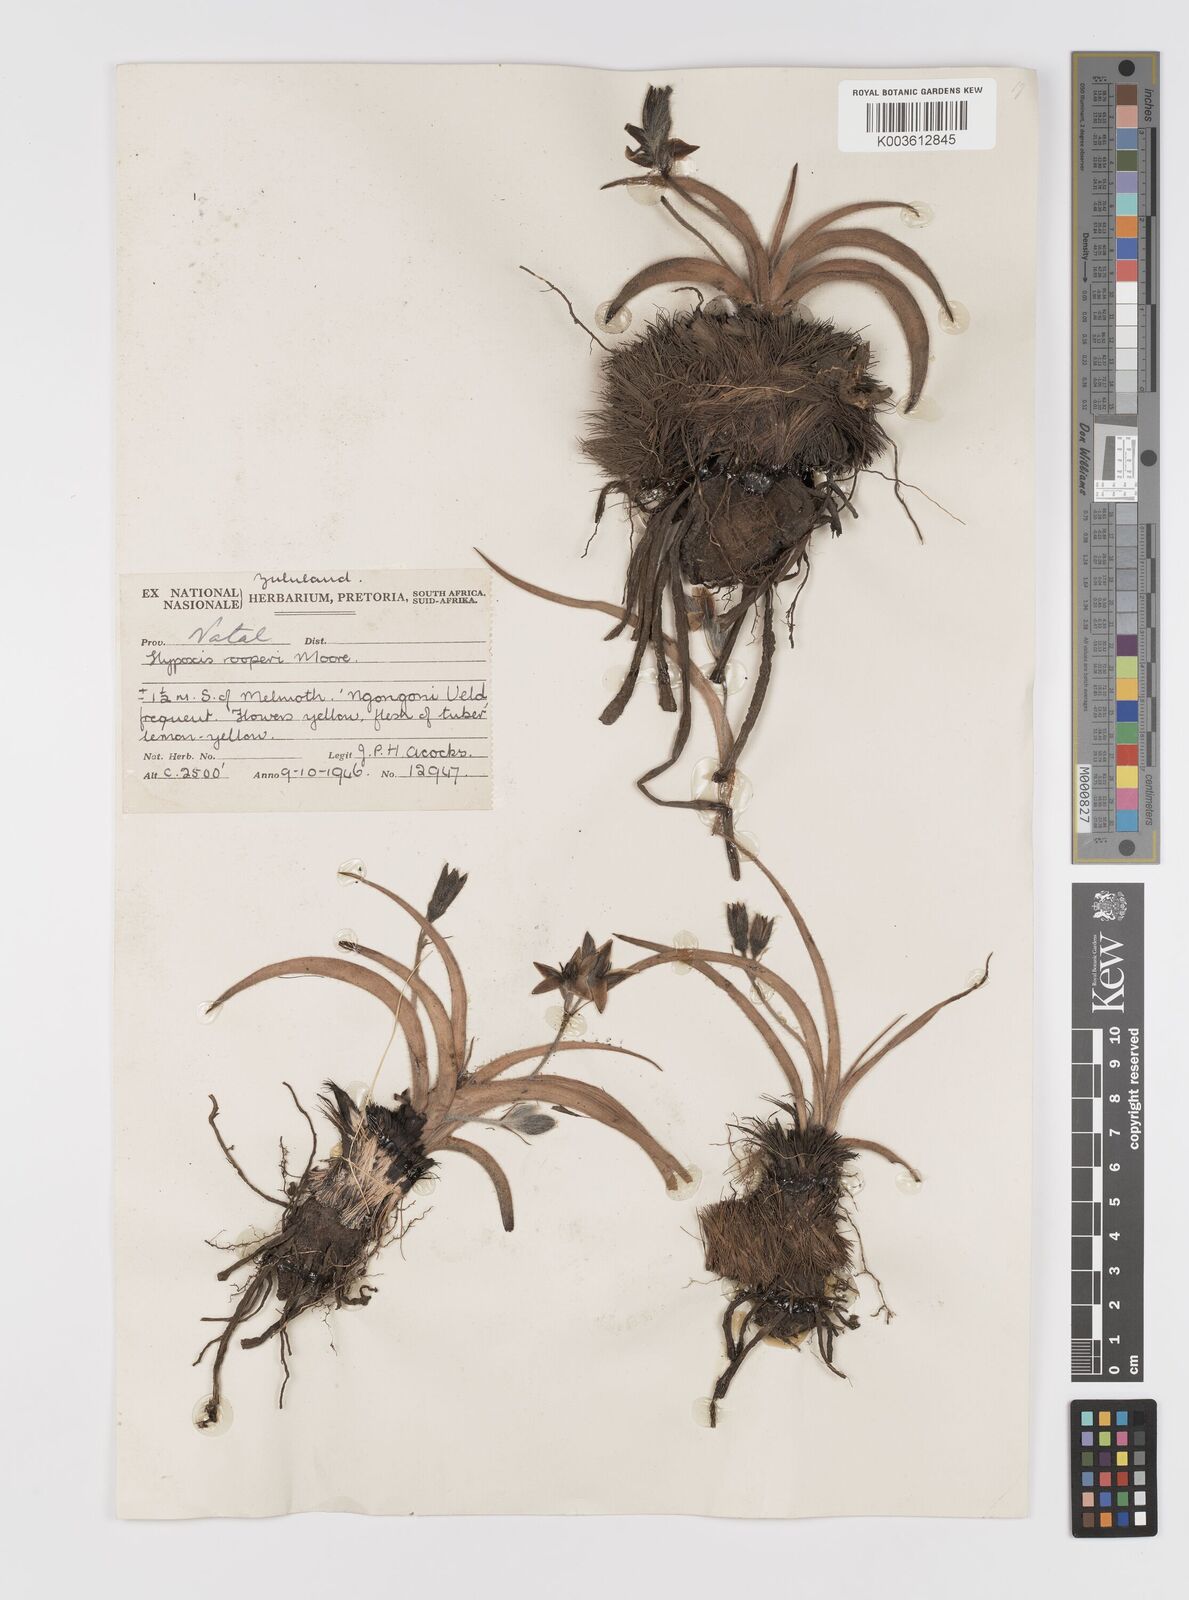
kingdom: Plantae
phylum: Tracheophyta
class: Liliopsida
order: Asparagales
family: Hypoxidaceae
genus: Hypoxis
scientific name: Hypoxis hemerocallidea
